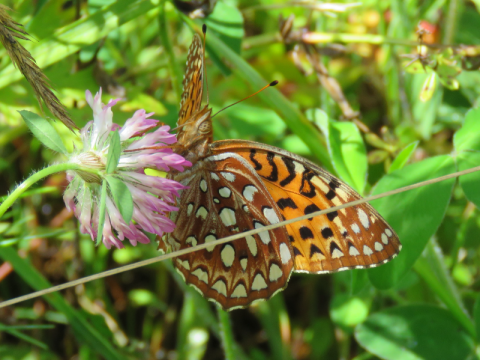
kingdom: Animalia
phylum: Arthropoda
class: Insecta
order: Lepidoptera
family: Nymphalidae
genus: Speyeria
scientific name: Speyeria aphrodite
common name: Aphrodite Fritillary
